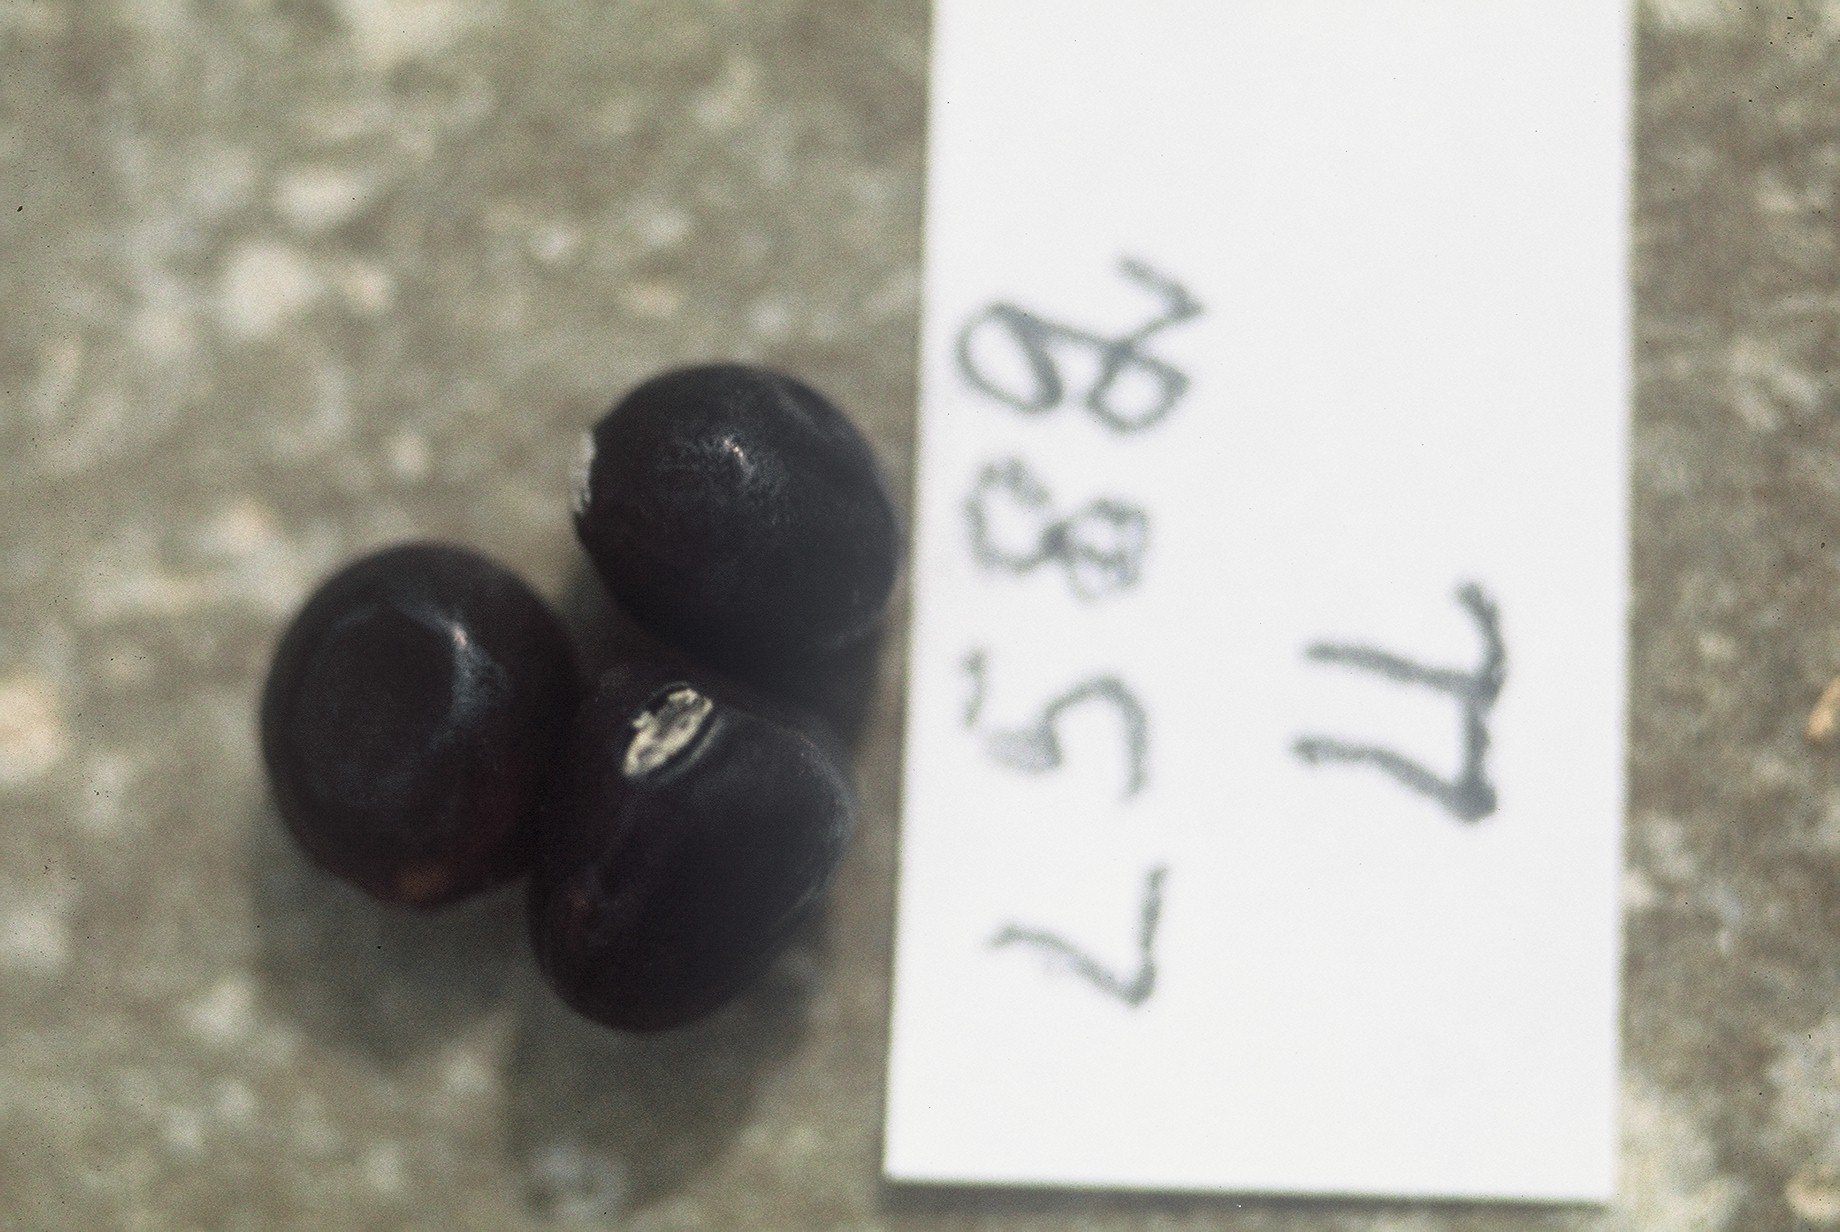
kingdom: Plantae
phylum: Tracheophyta
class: Magnoliopsida
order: Fabales
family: Fabaceae
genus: Lathyrus
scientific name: Lathyrus oleraceus
